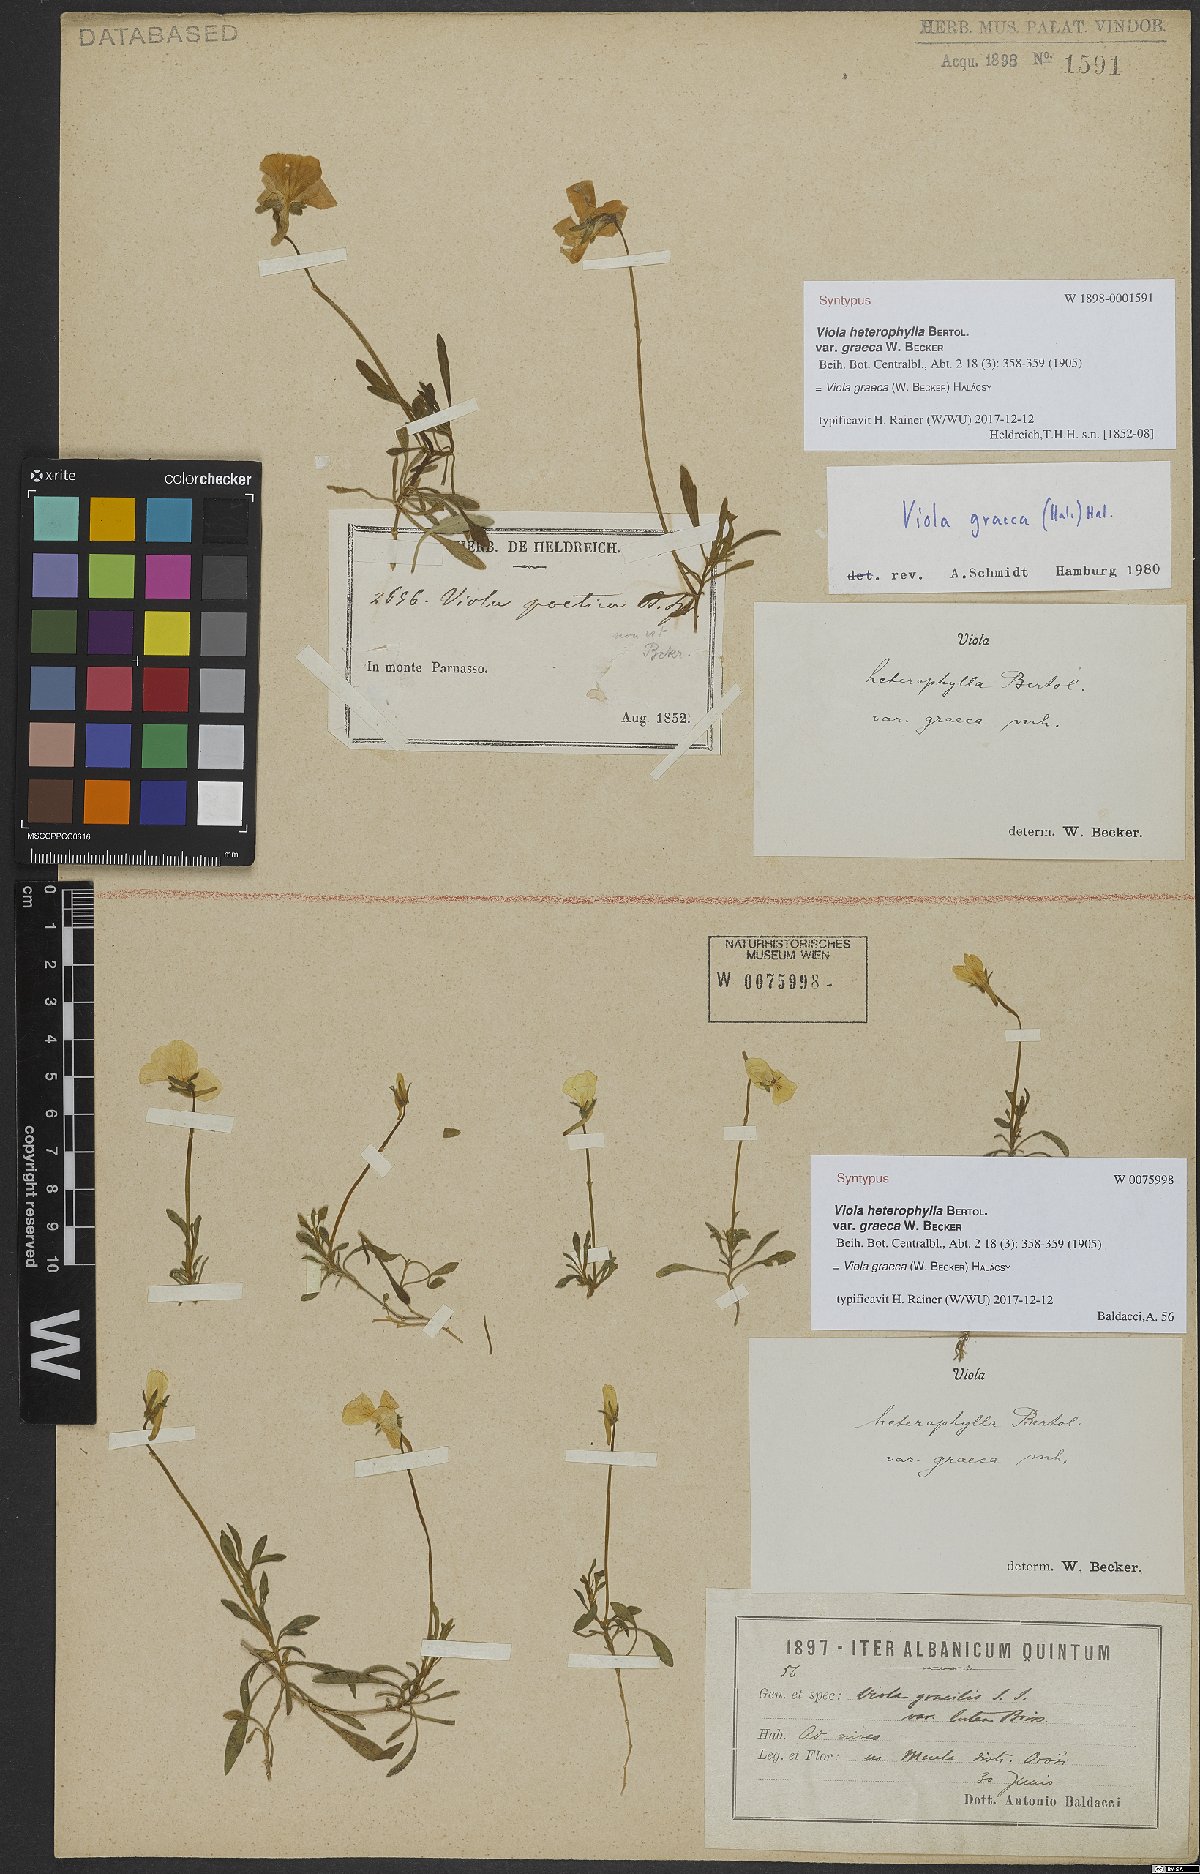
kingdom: Plantae
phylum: Tracheophyta
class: Magnoliopsida
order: Malpighiales
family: Violaceae
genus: Viola
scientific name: Viola graeca
